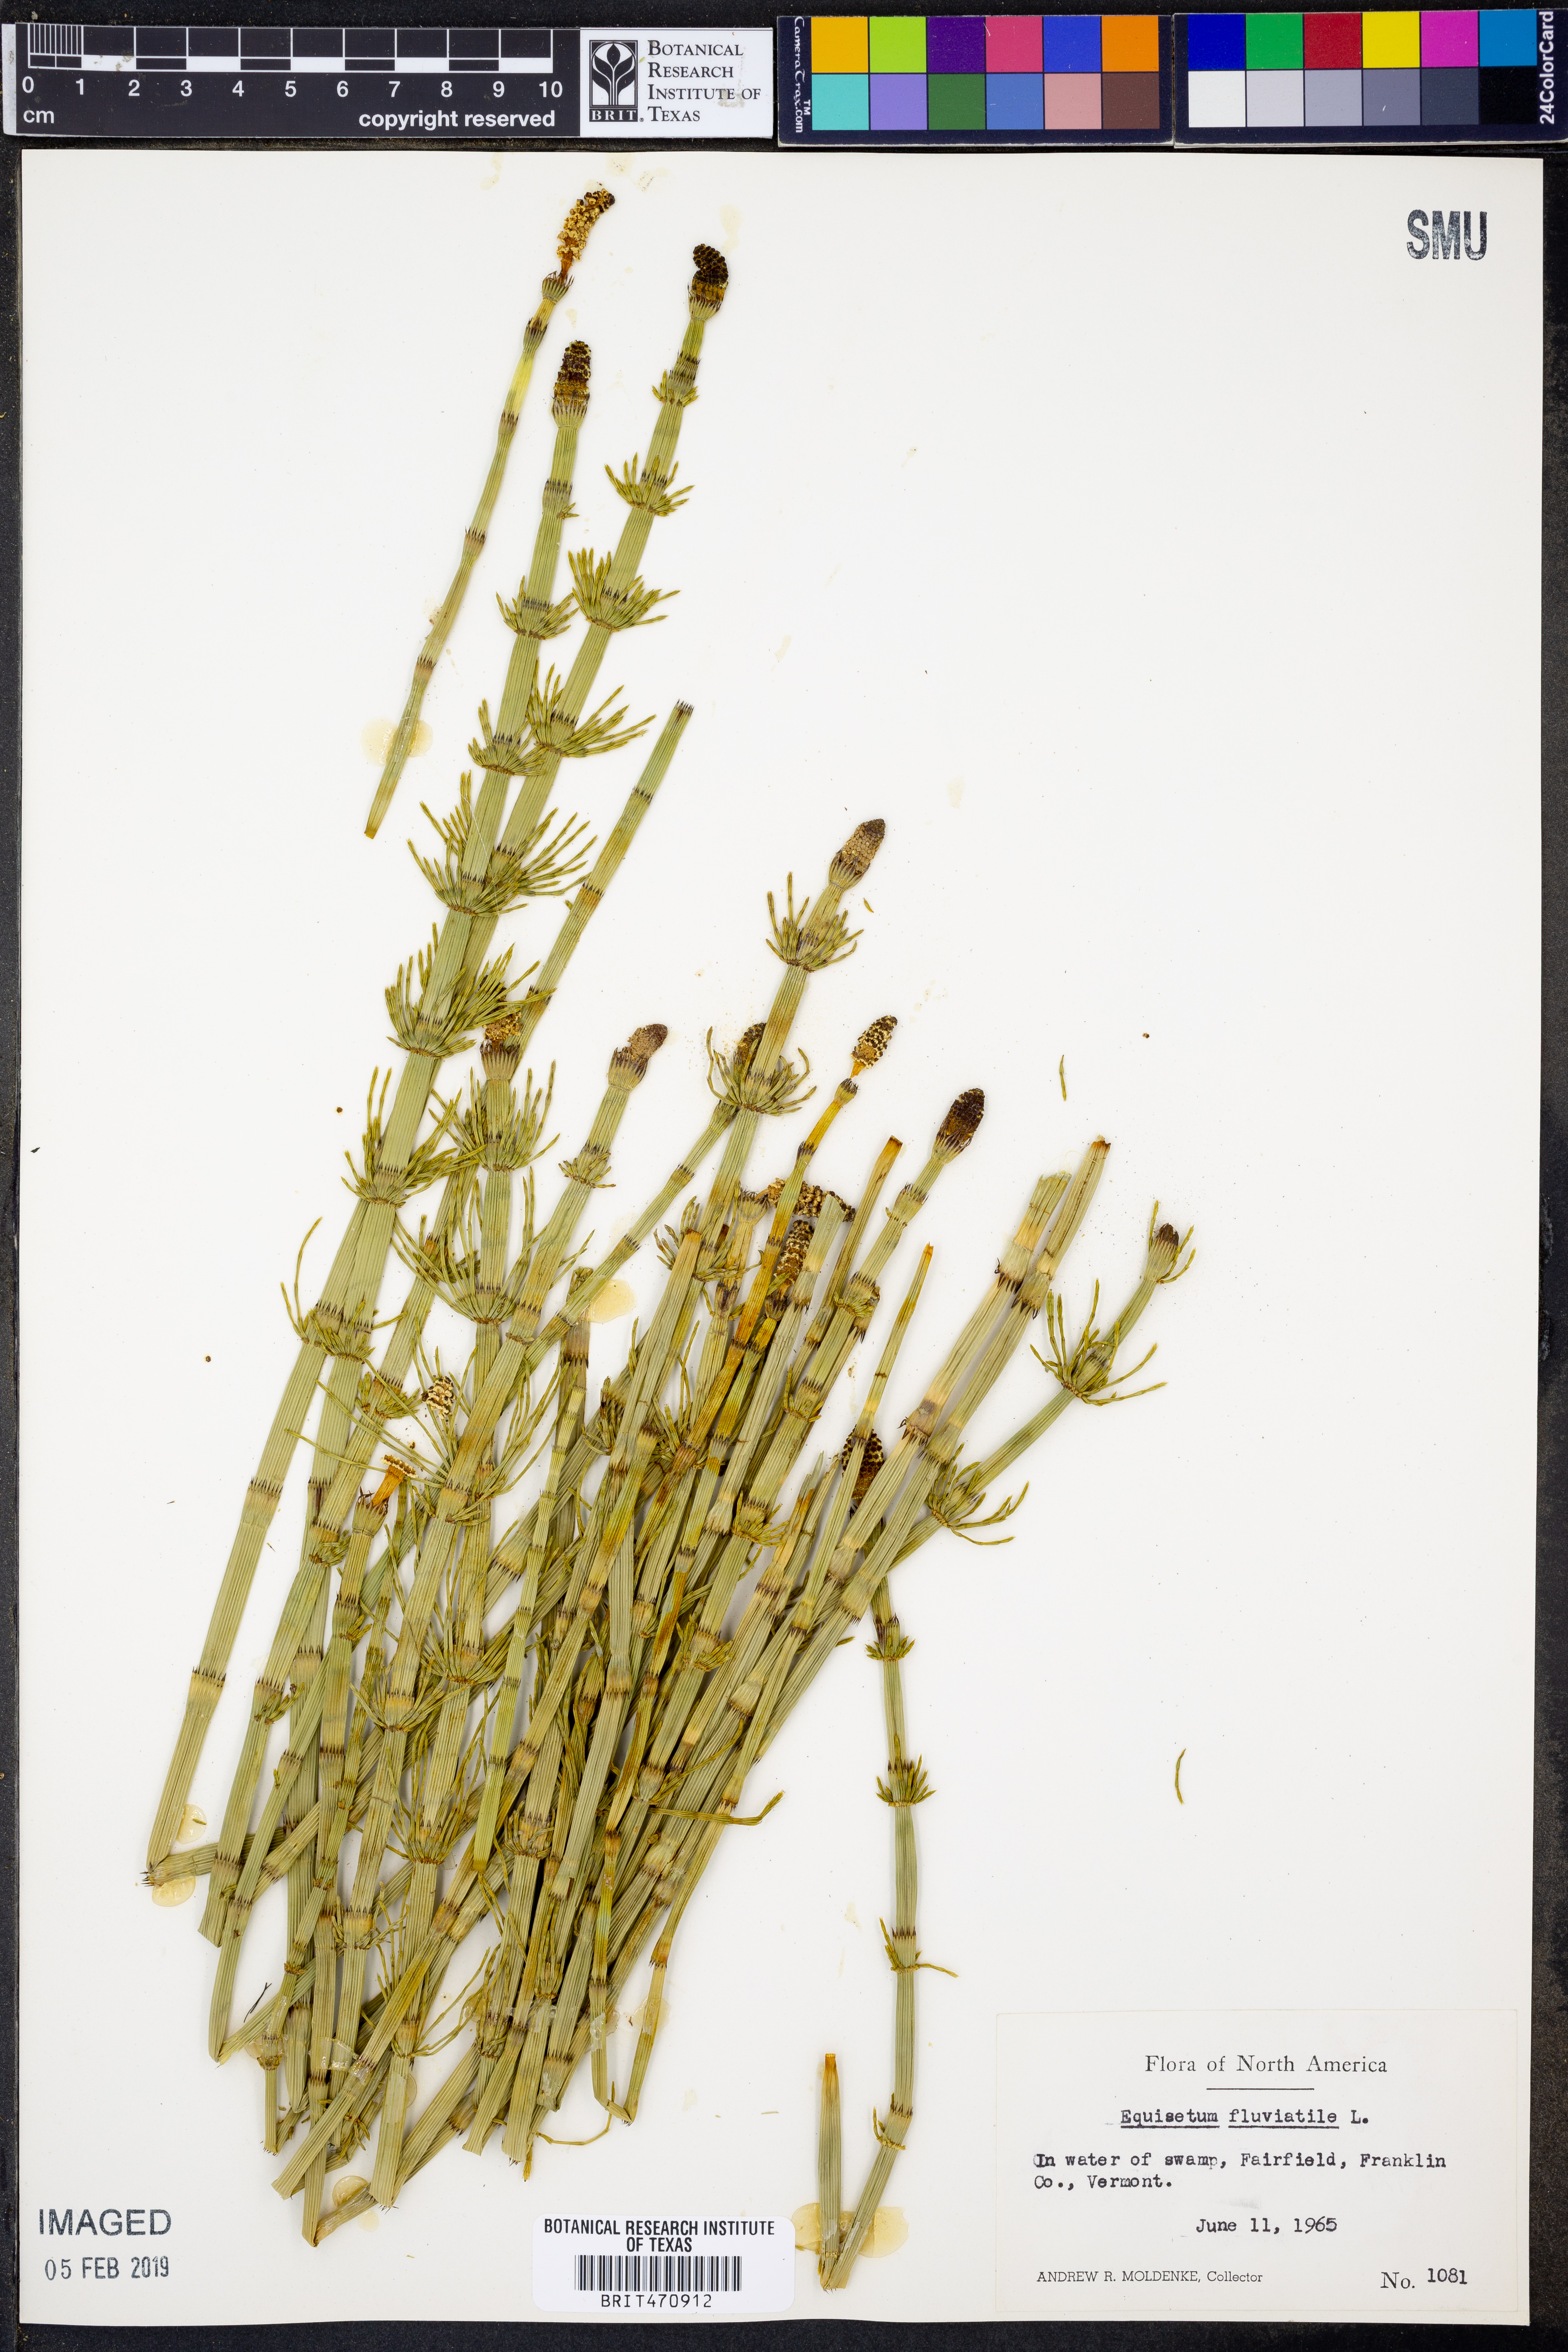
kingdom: Plantae
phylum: Tracheophyta
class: Polypodiopsida
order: Equisetales
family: Equisetaceae
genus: Equisetum
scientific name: Equisetum fluviatile
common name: Water horsetail
